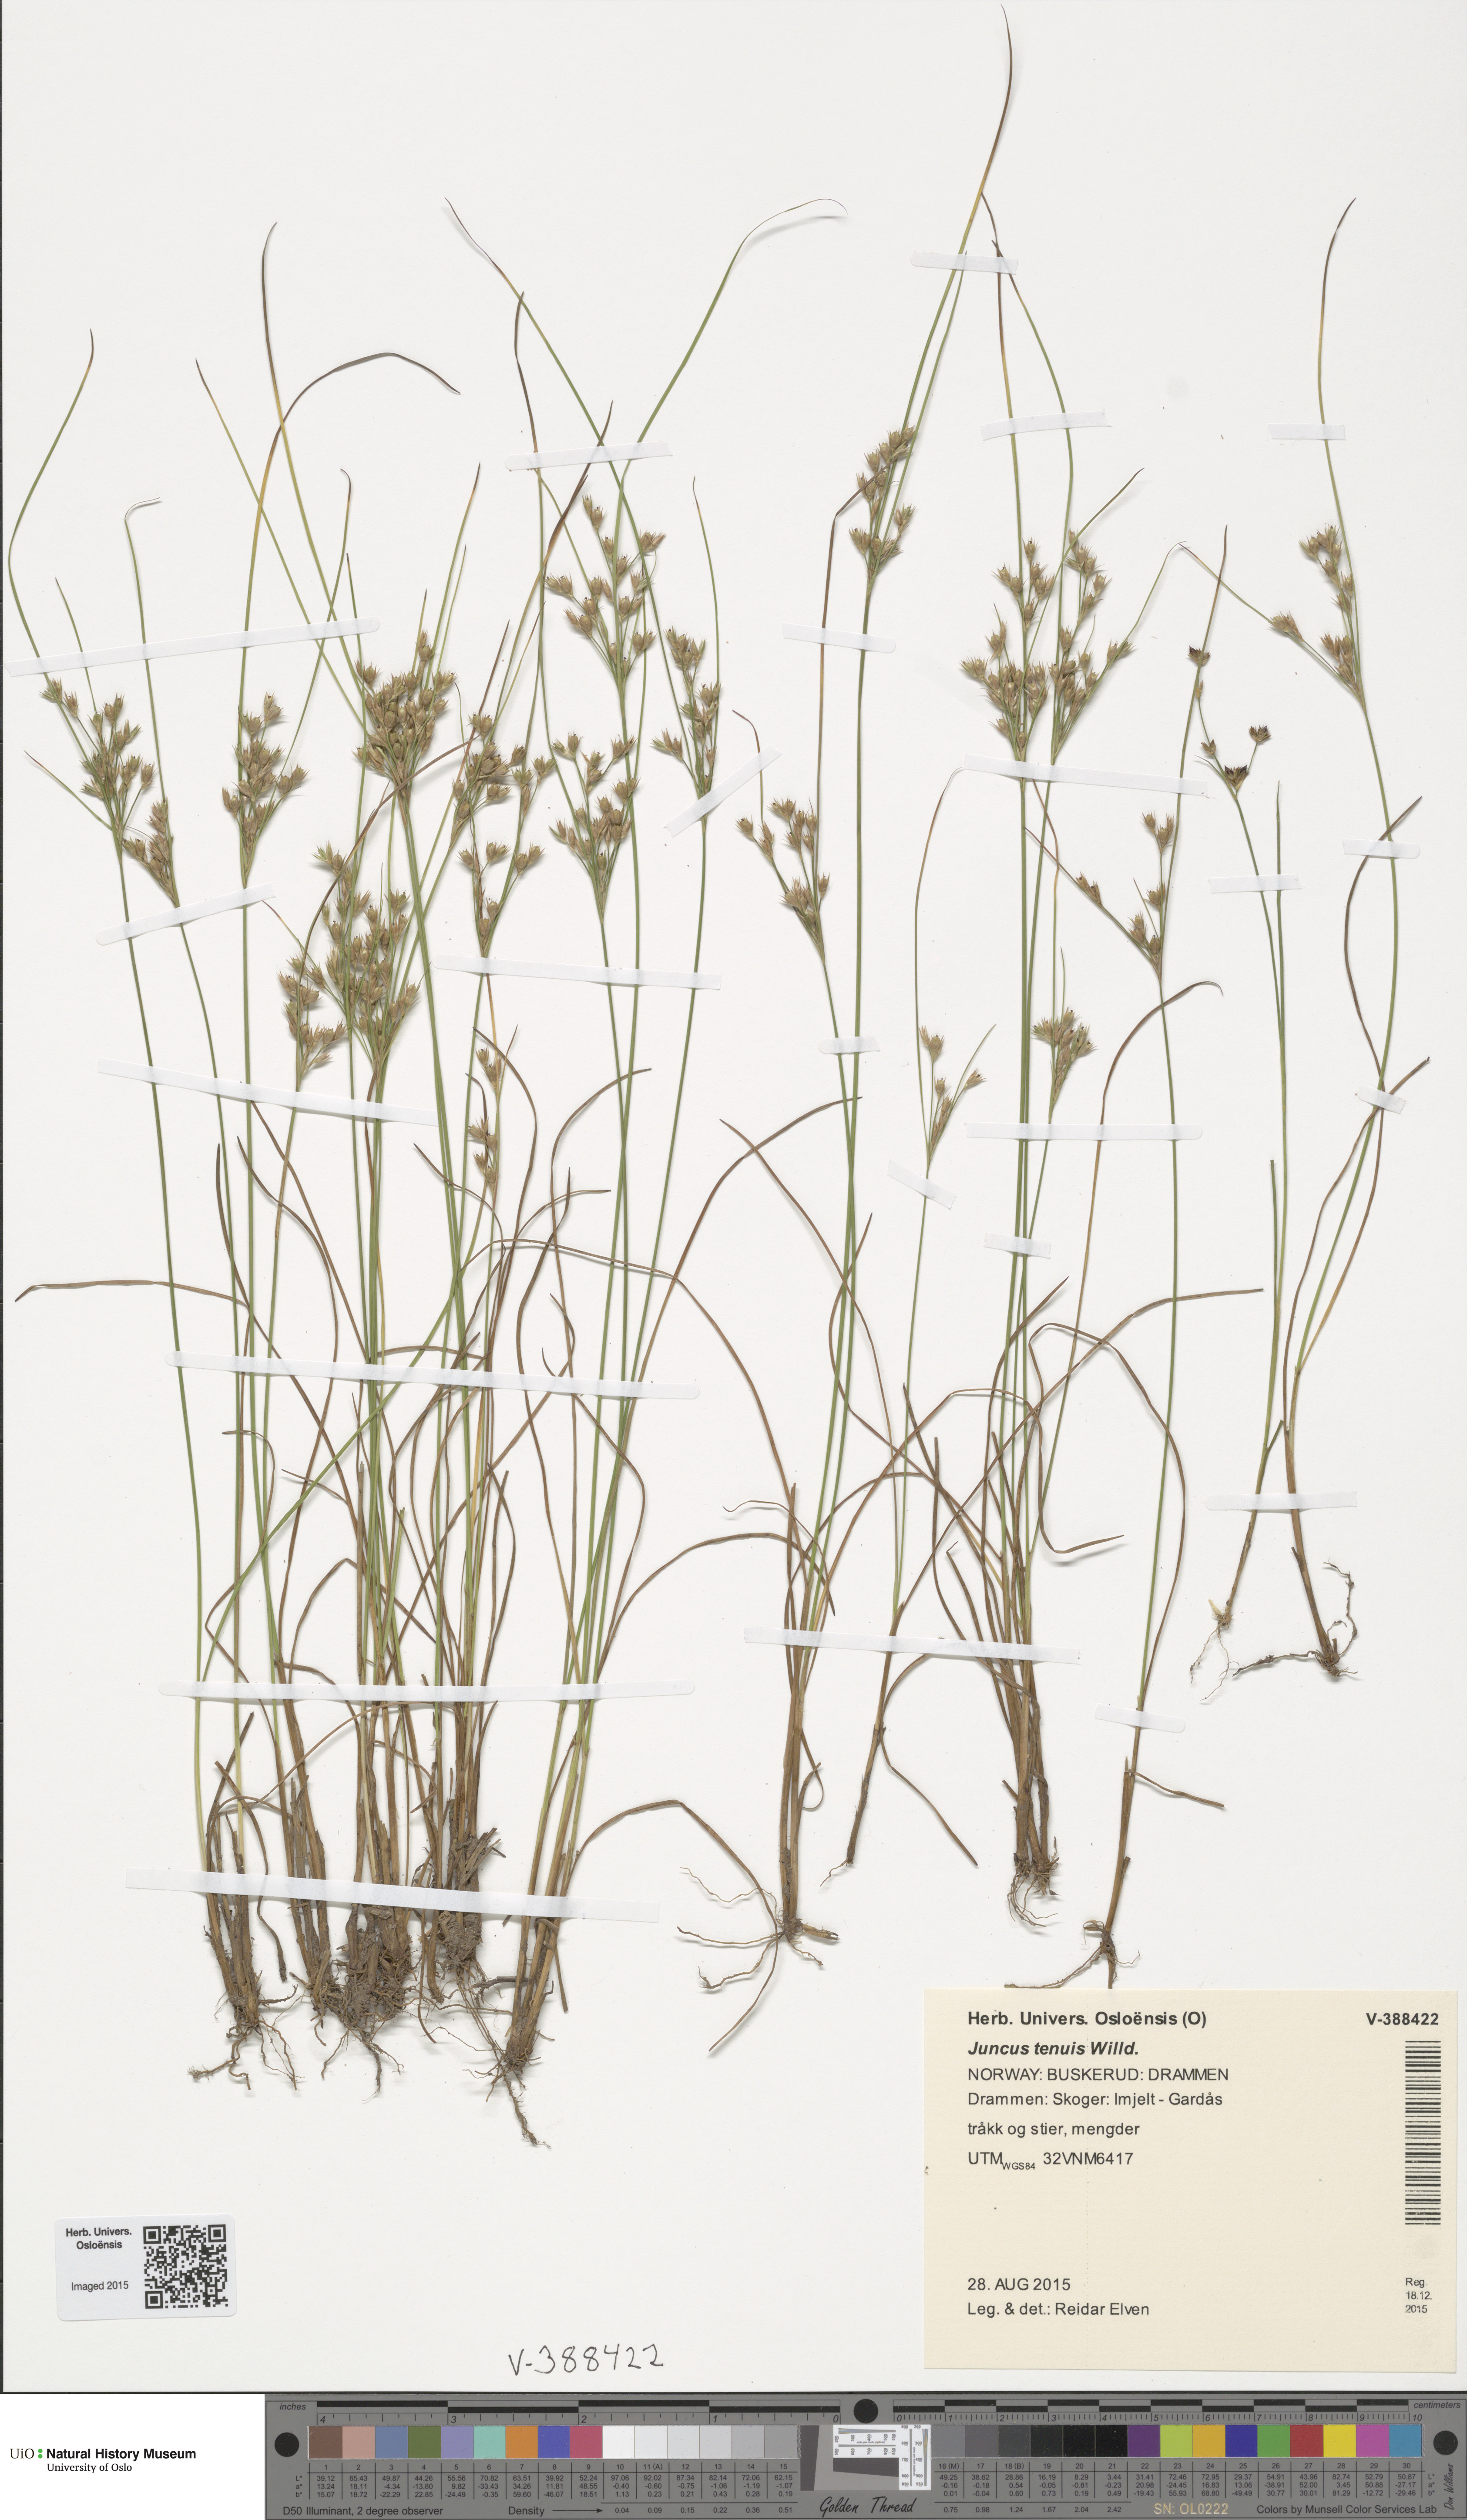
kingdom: Plantae
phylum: Tracheophyta
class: Liliopsida
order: Poales
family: Juncaceae
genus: Juncus
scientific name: Juncus tenuis
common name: Slender rush
